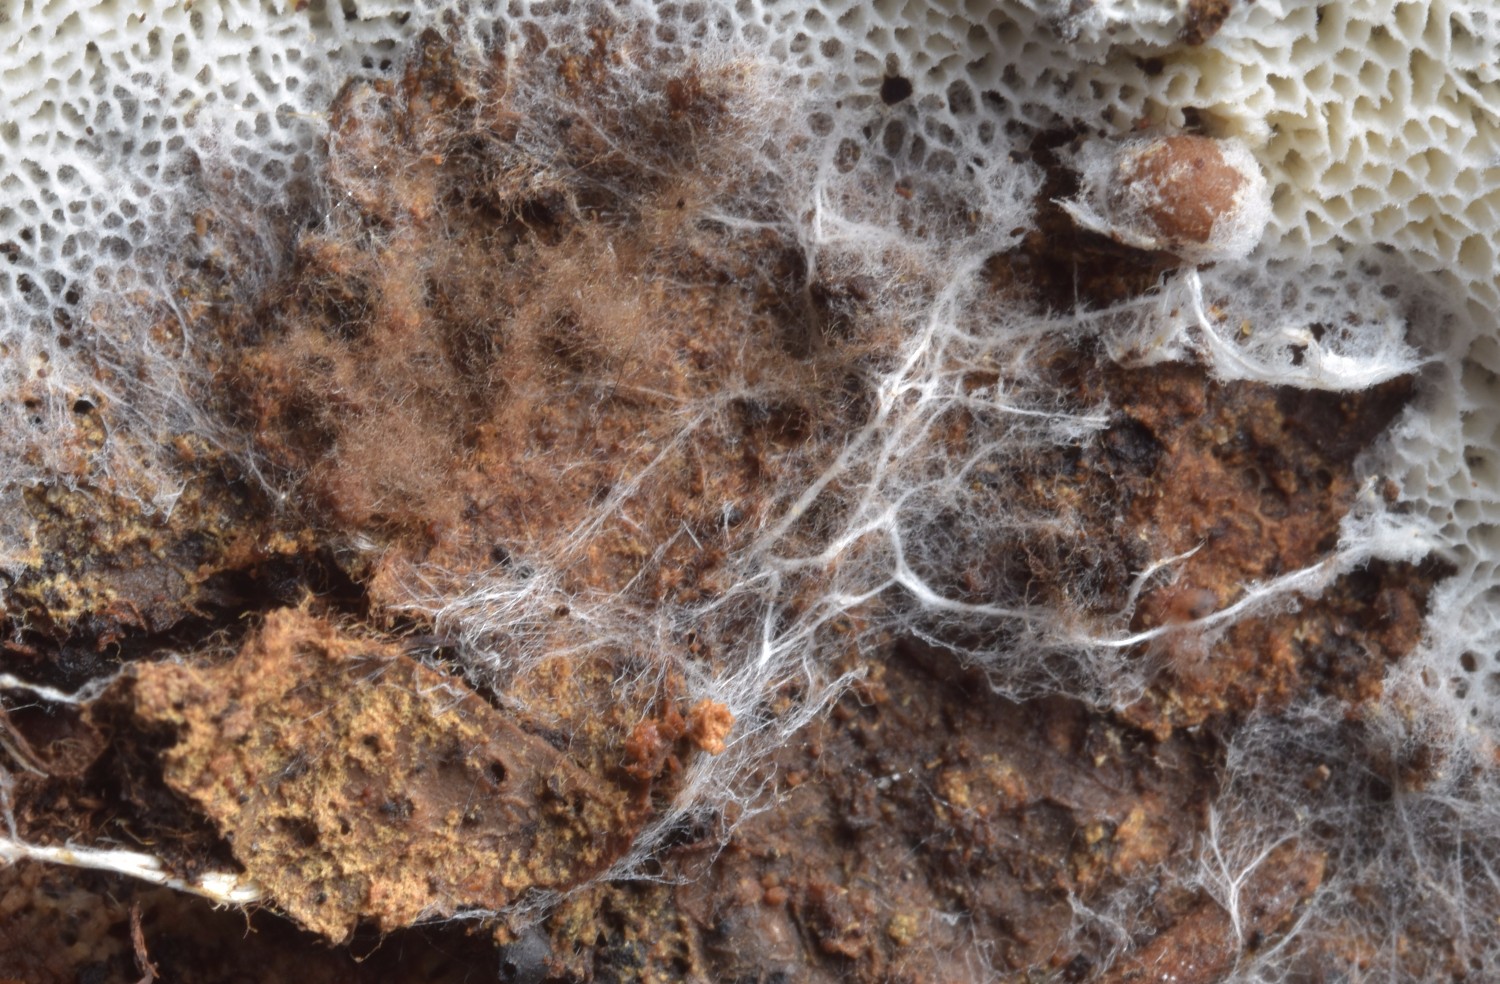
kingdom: Fungi
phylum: Basidiomycota
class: Agaricomycetes
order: Trechisporales
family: Sistotremataceae
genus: Trechispora
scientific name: Trechispora mollusca
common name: pyramide-vathinde
